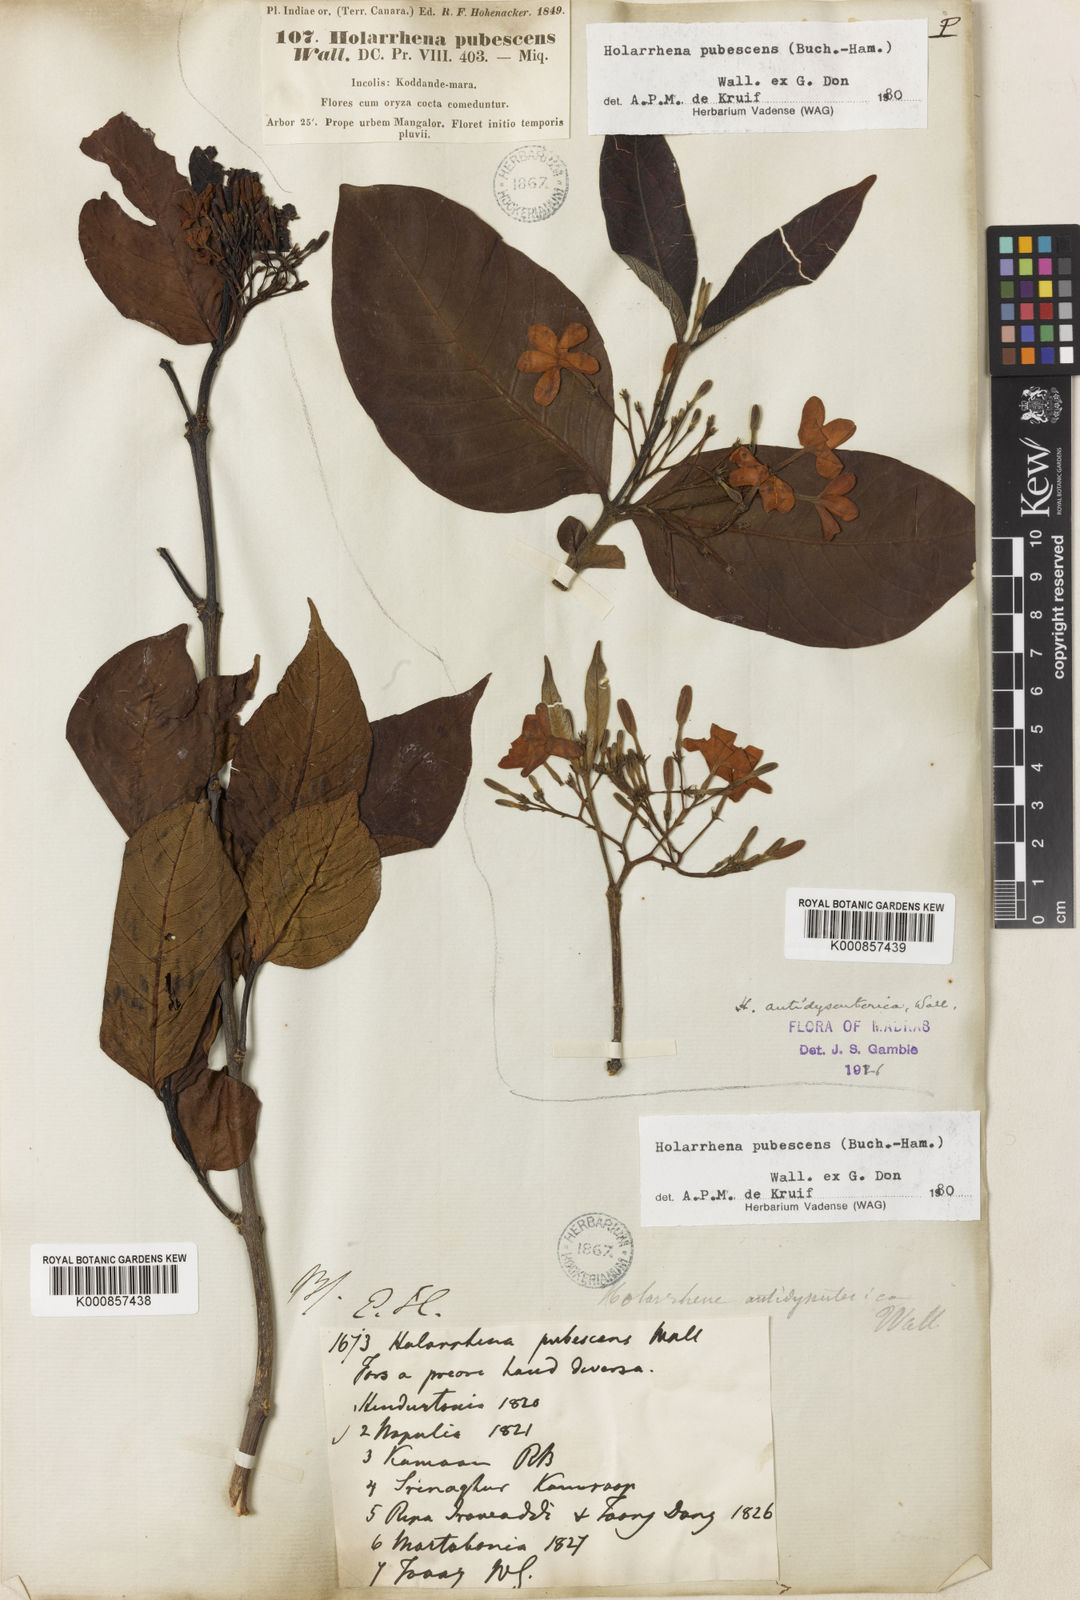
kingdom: Plantae
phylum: Tracheophyta
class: Magnoliopsida
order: Gentianales
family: Apocynaceae
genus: Holarrhena
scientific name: Holarrhena pubescens
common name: Bitter oleander
